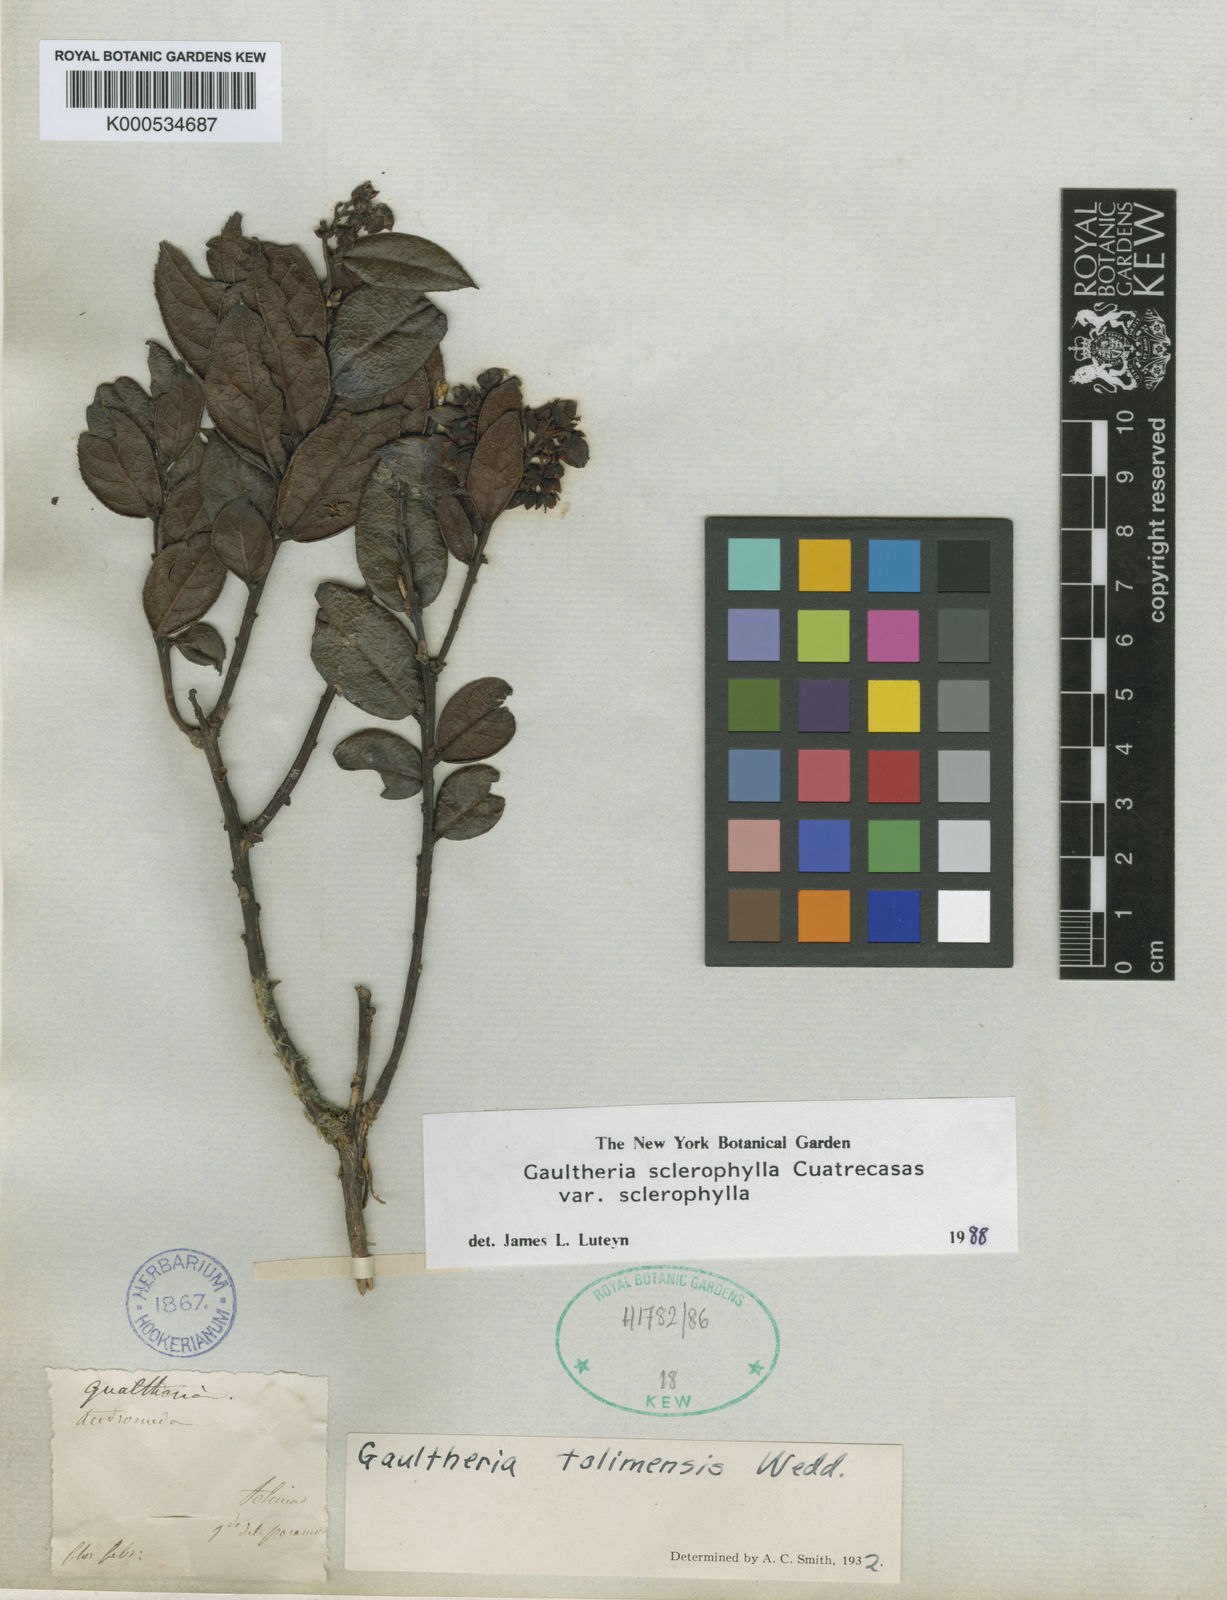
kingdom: Plantae
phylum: Tracheophyta
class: Magnoliopsida
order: Ericales
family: Ericaceae
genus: Gaultheria
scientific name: Gaultheria sclerophylla
